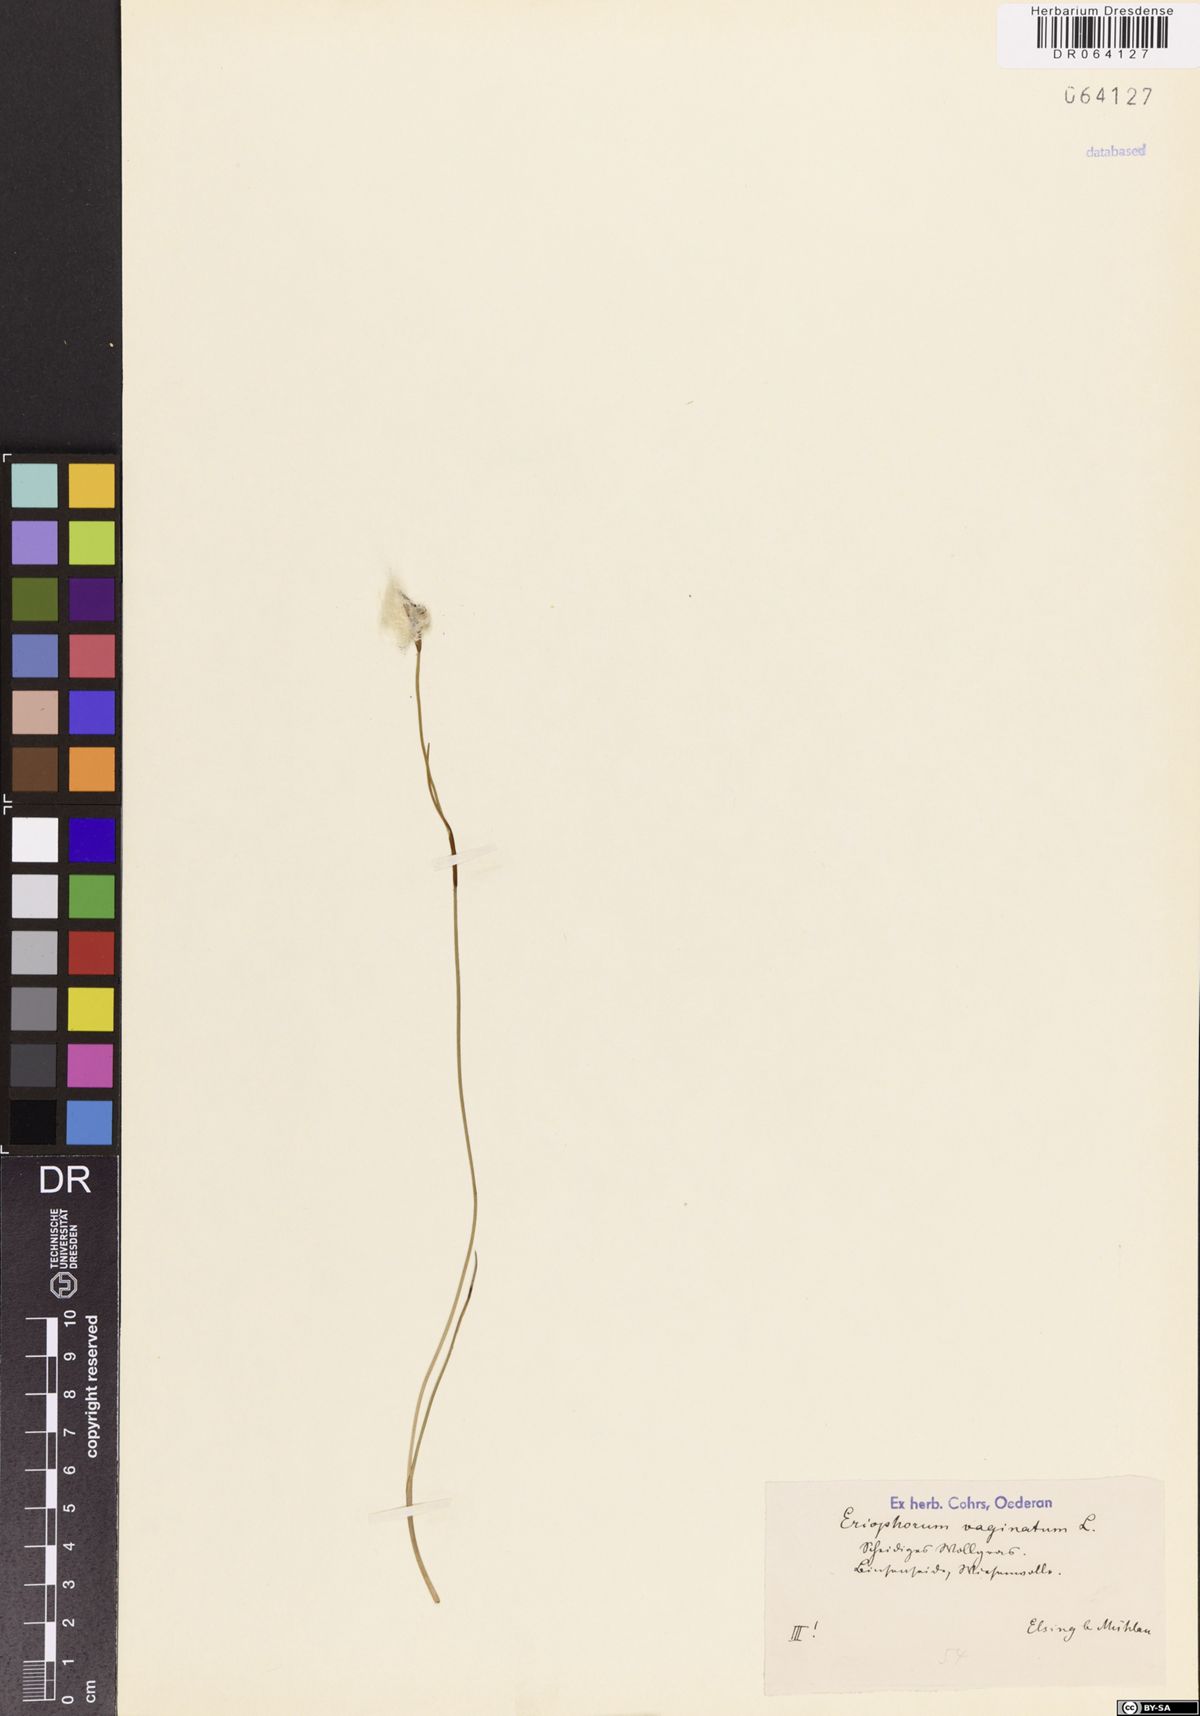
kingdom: Plantae
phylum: Tracheophyta
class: Liliopsida
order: Poales
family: Cyperaceae
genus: Eriophorum
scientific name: Eriophorum vaginatum
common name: Hare's-tail cottongrass
